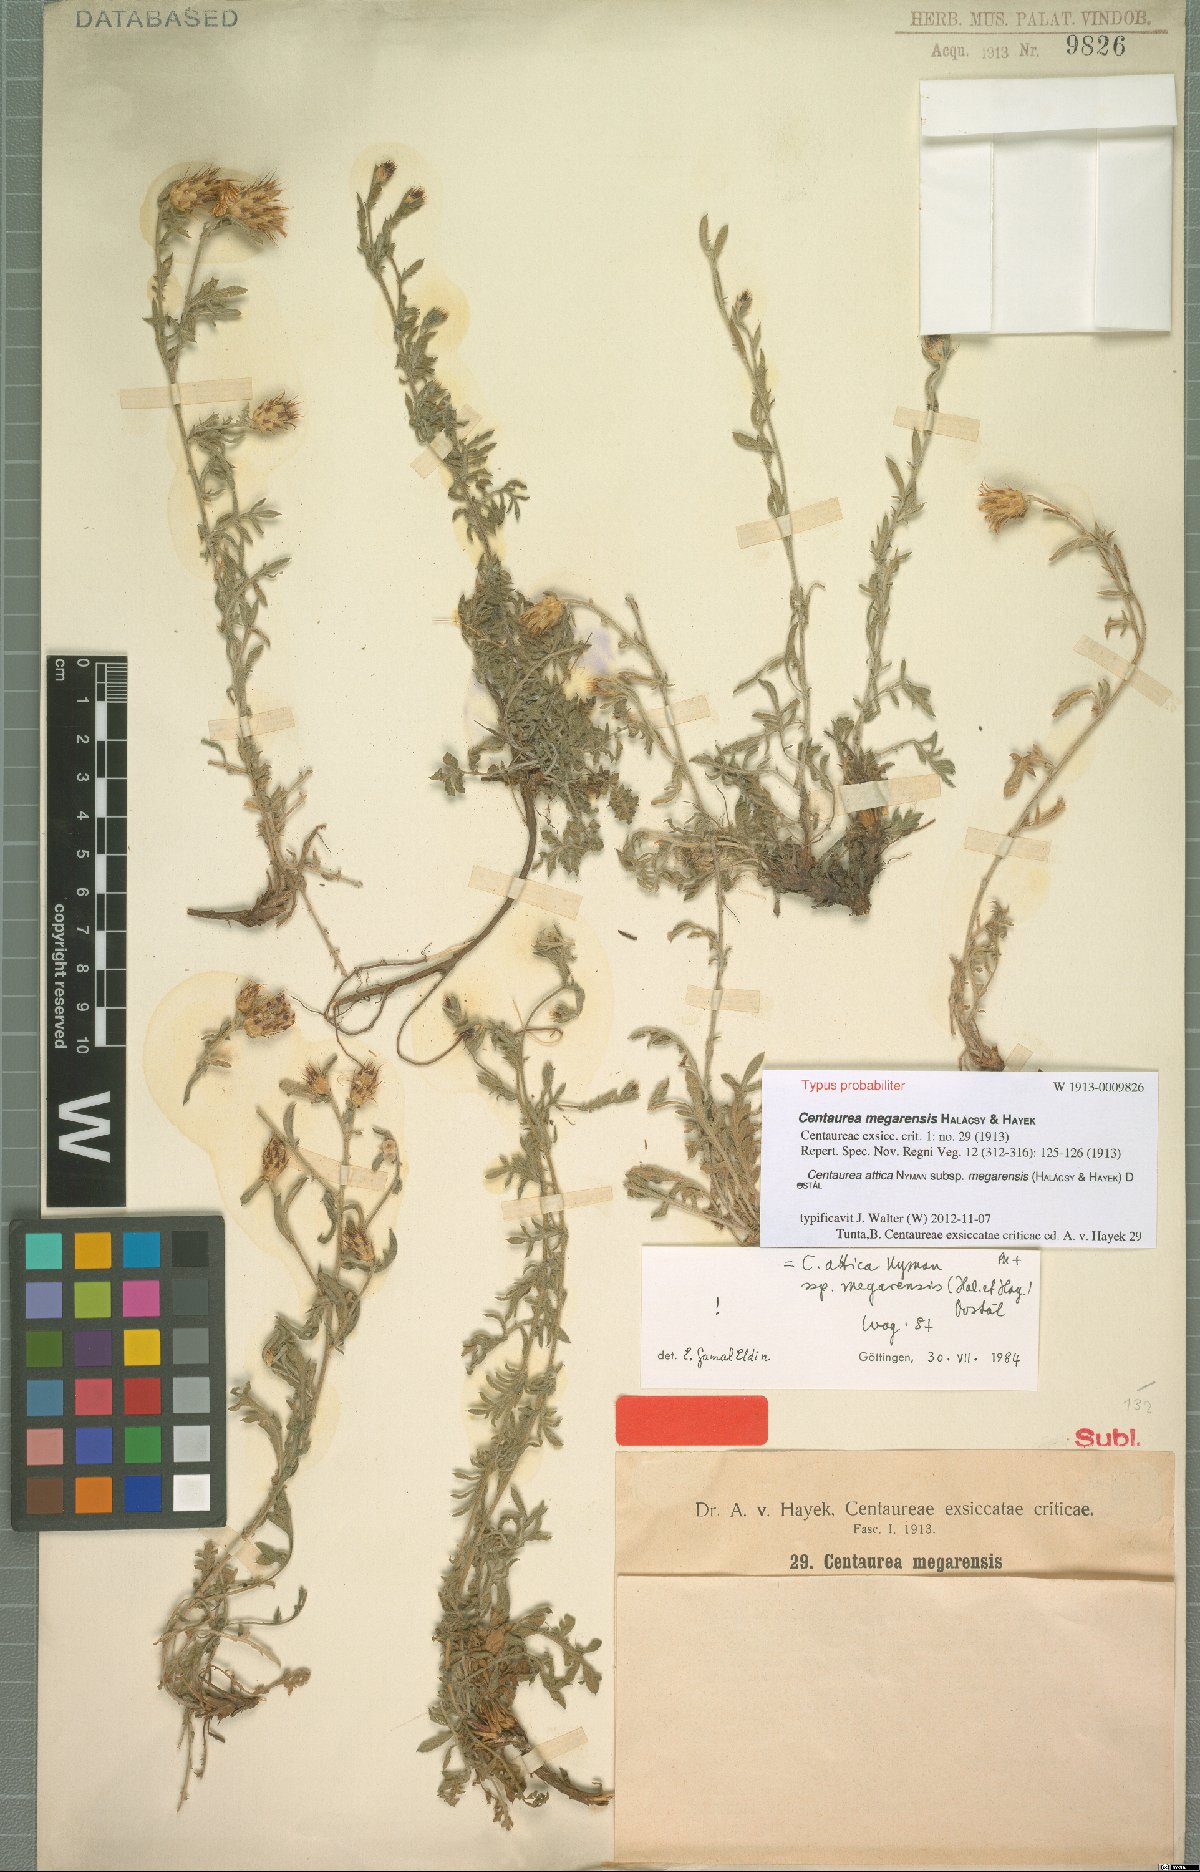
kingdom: Plantae
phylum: Tracheophyta
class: Magnoliopsida
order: Asterales
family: Asteraceae
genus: Centaurea
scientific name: Centaurea attica
